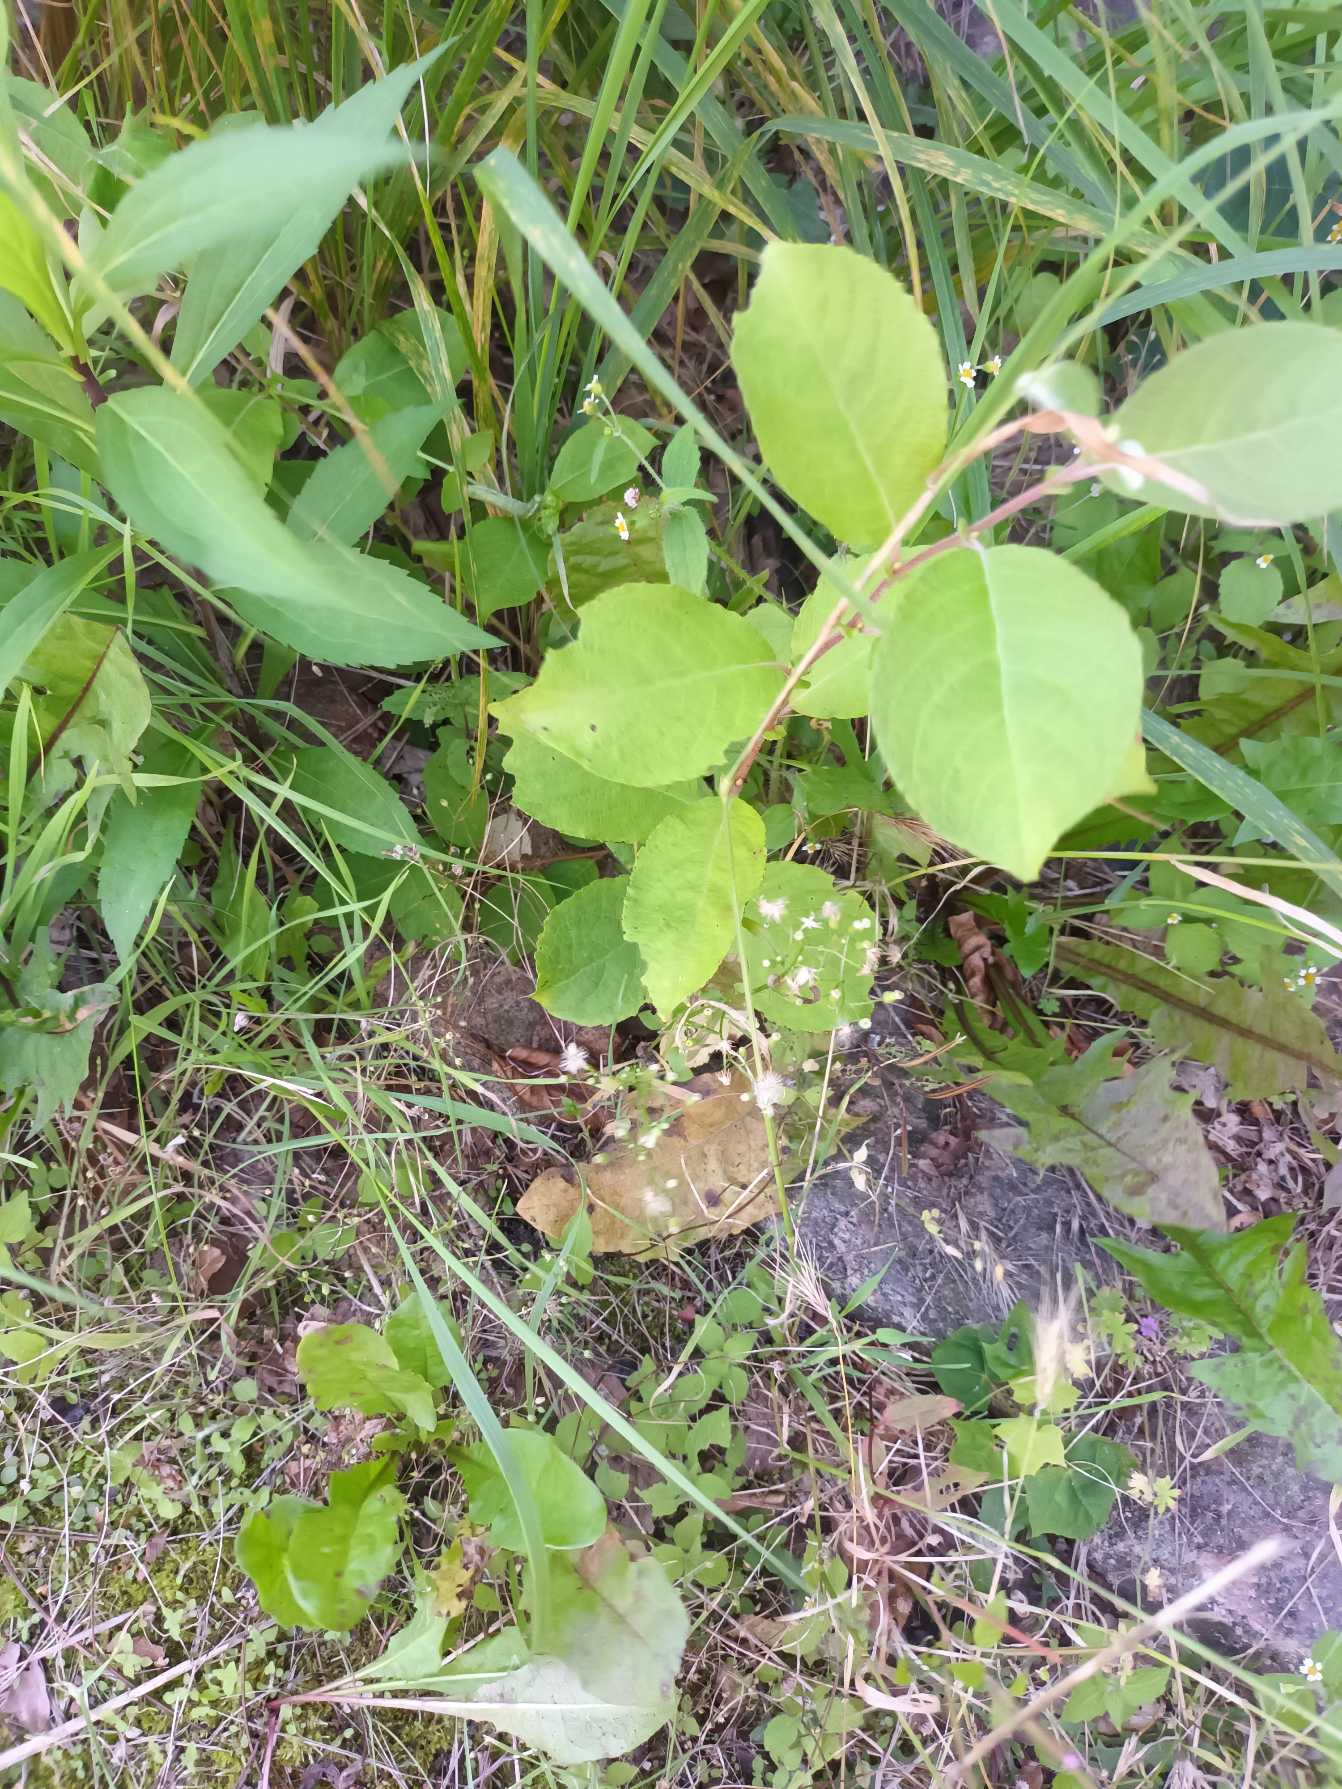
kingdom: Plantae
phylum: Tracheophyta
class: Magnoliopsida
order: Malpighiales
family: Salicaceae
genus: Salix
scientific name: Salix caprea
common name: Selje-pil
